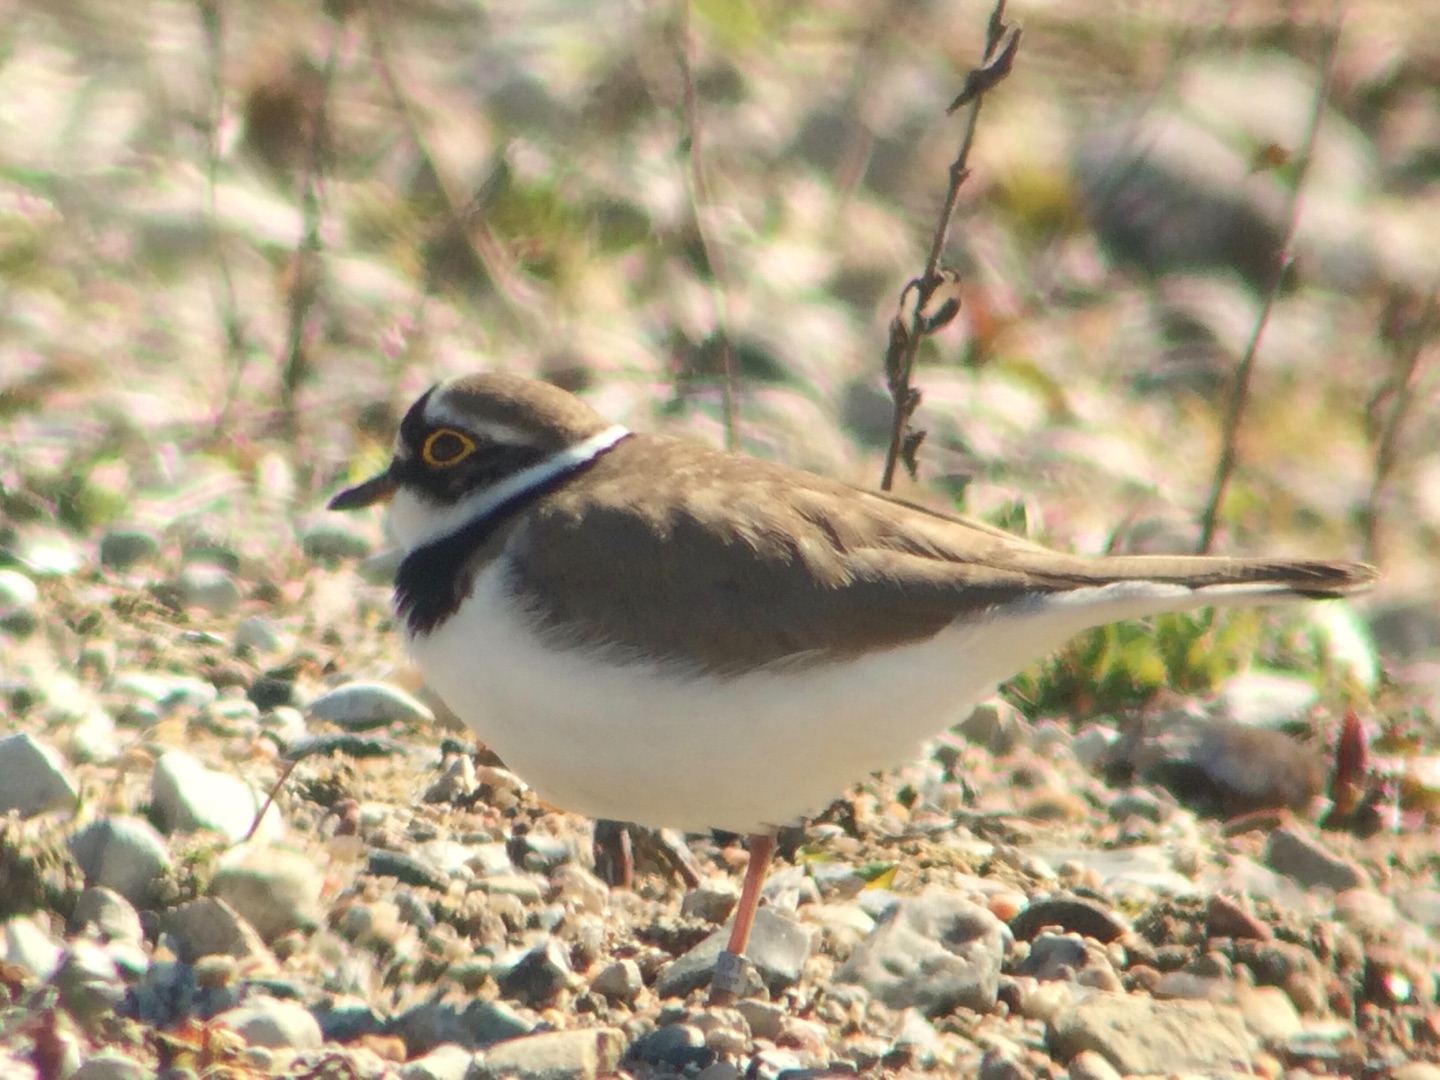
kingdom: Animalia
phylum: Chordata
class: Aves
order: Charadriiformes
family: Charadriidae
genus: Charadrius
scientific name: Charadrius dubius
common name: Lille præstekrave
